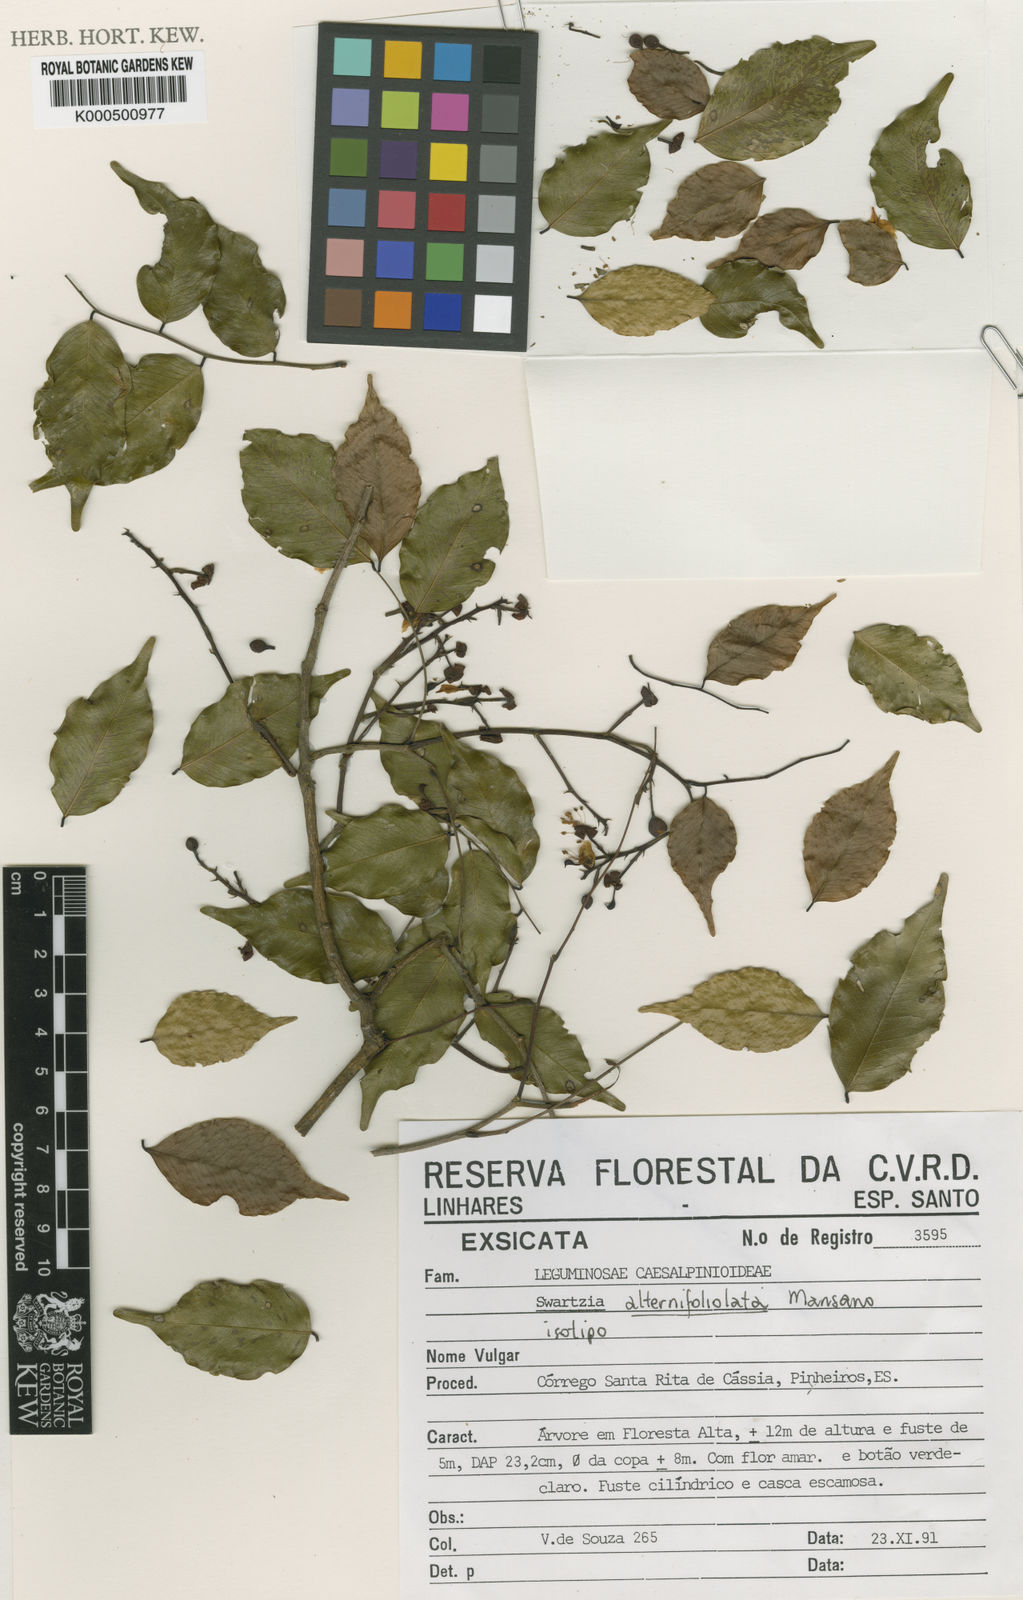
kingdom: Plantae
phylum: Tracheophyta
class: Magnoliopsida
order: Fabales
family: Fabaceae
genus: Swartzia
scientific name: Swartzia alternifoliolata
